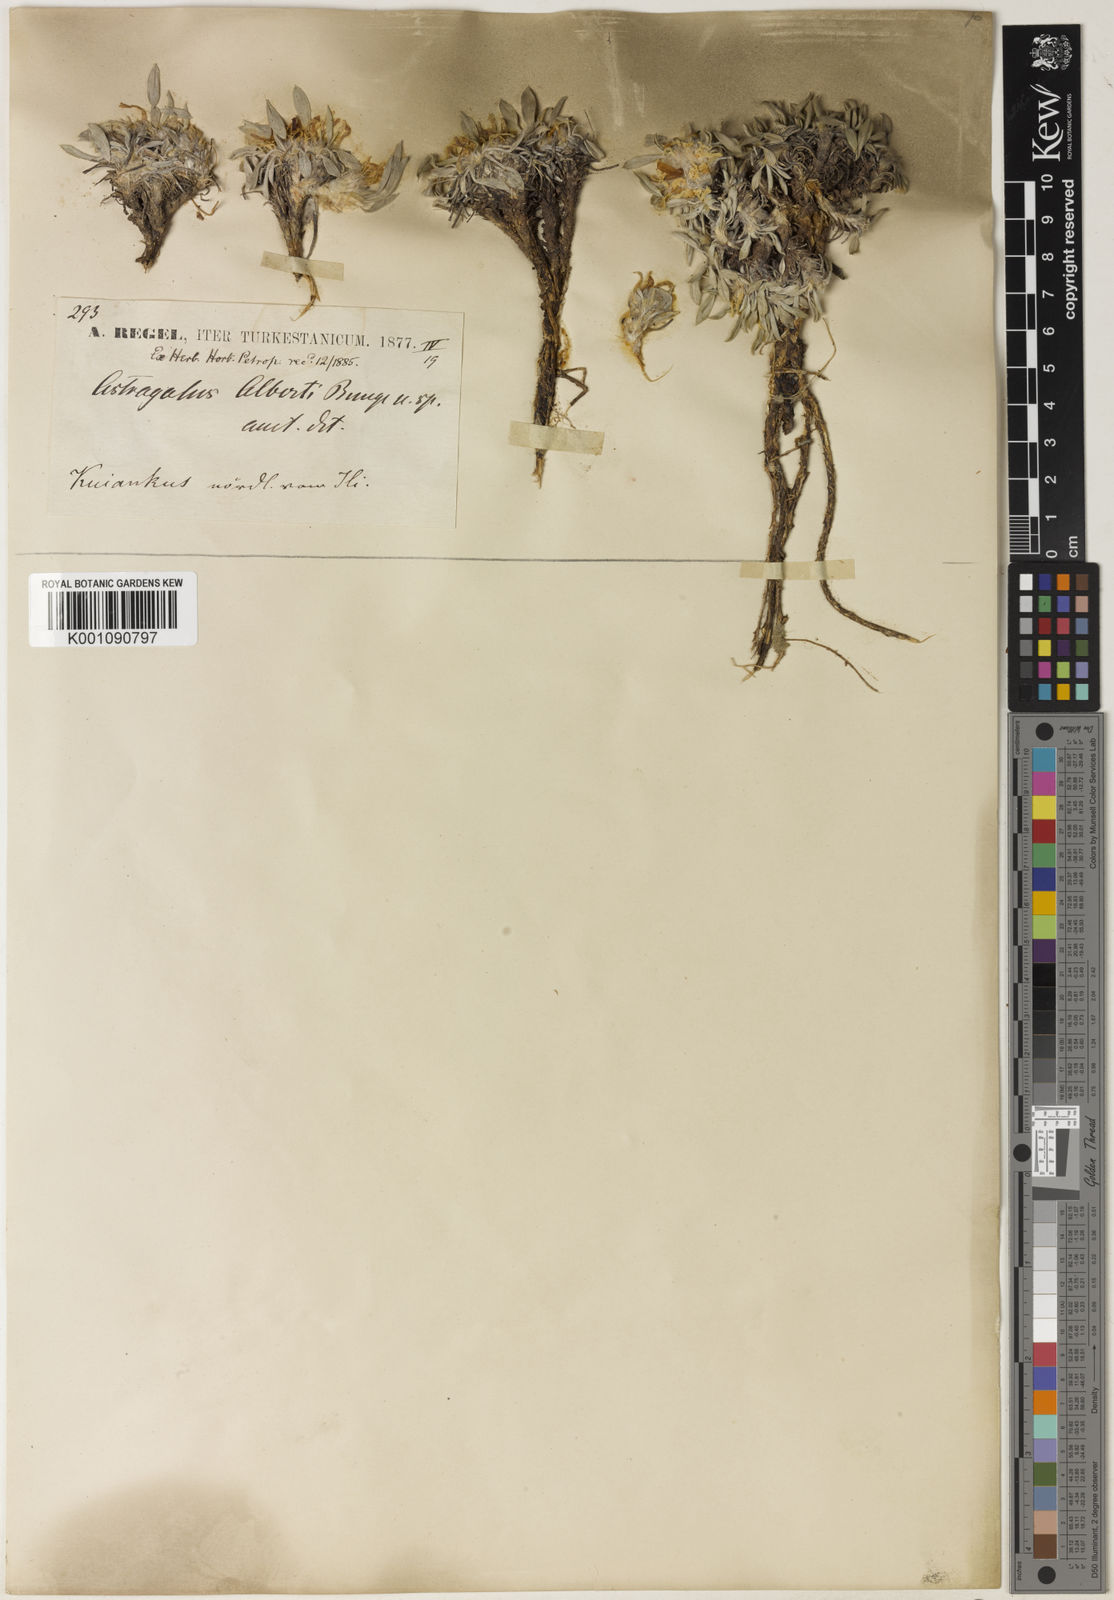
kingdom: Plantae
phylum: Tracheophyta
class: Magnoliopsida
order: Fabales
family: Fabaceae
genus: Astragalus
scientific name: Astragalus
